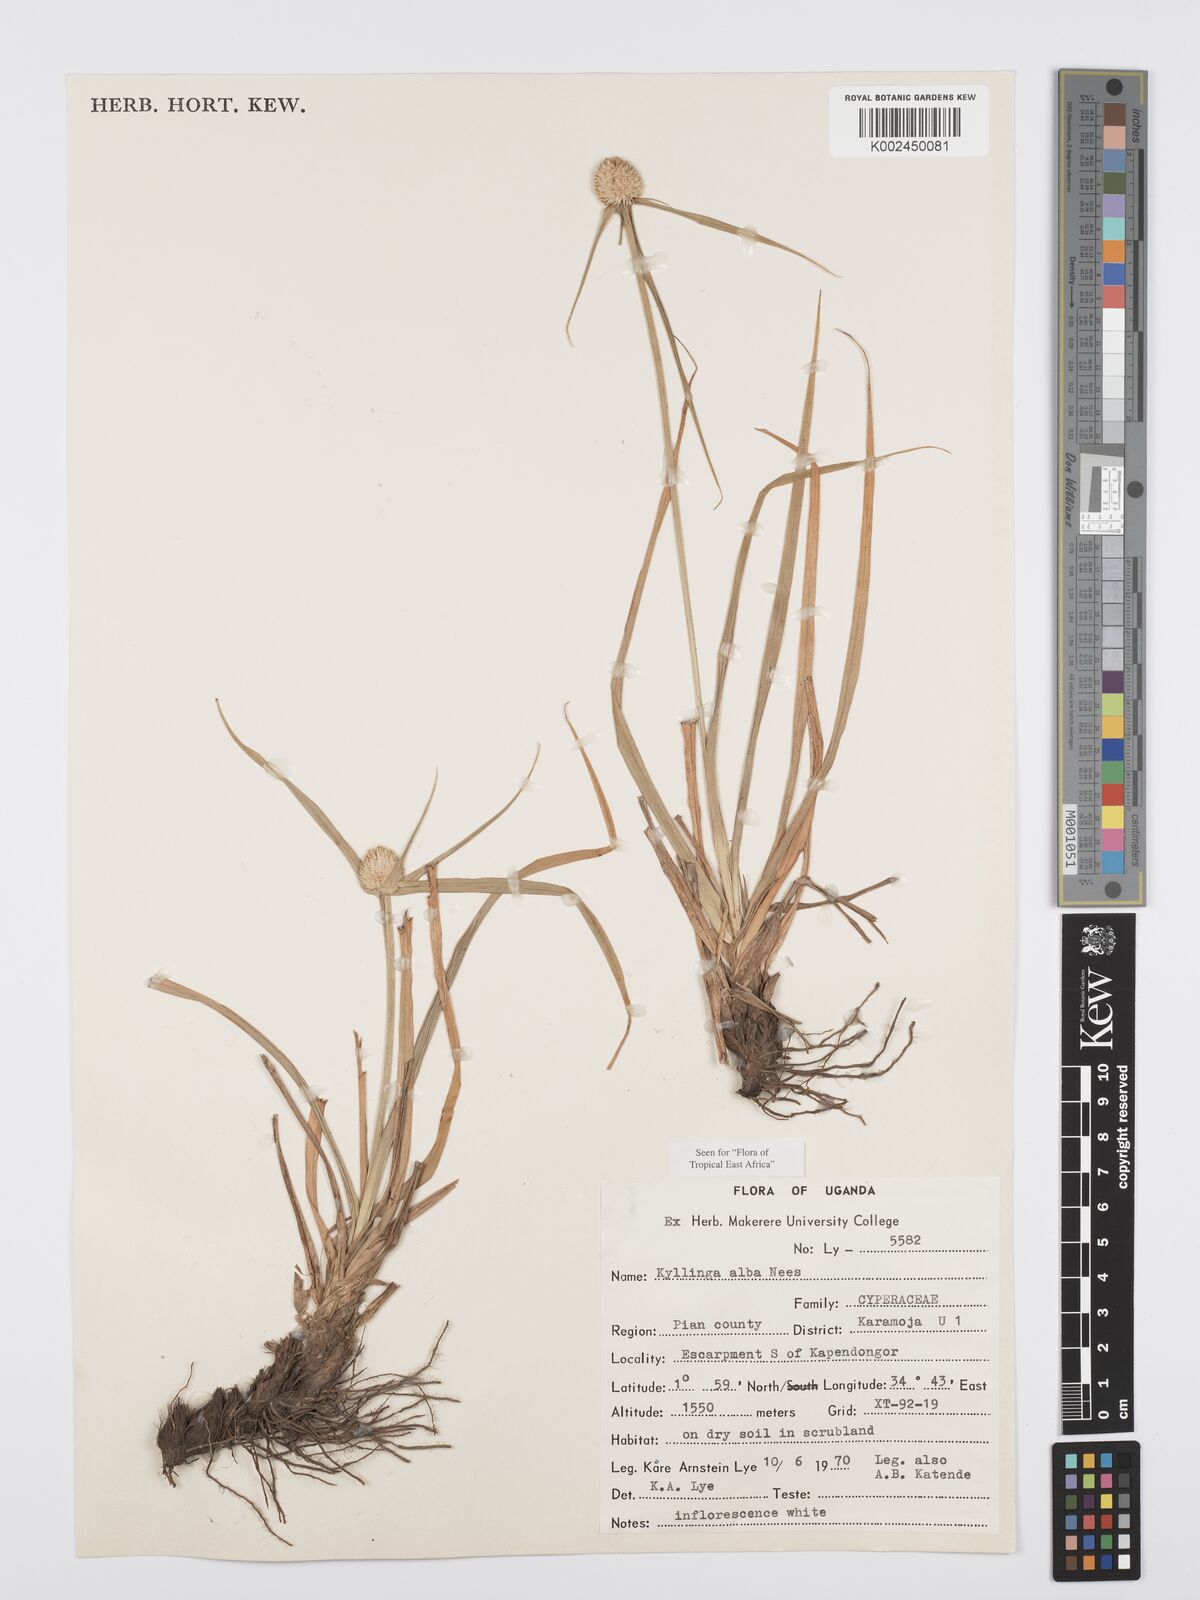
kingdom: Plantae
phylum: Tracheophyta
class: Liliopsida
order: Poales
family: Cyperaceae
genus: Cyperus
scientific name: Cyperus
